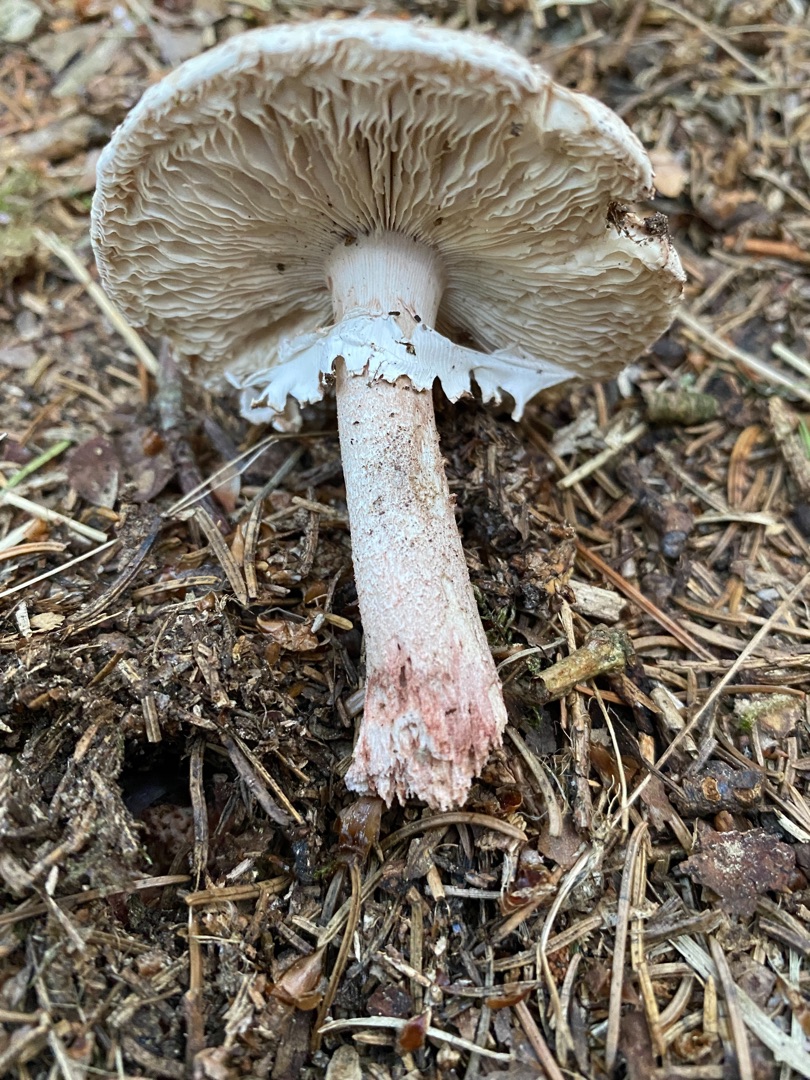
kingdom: Fungi
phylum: Basidiomycota
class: Agaricomycetes
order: Agaricales
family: Amanitaceae
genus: Amanita
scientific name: Amanita rubescens
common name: Rødmende fluesvamp
